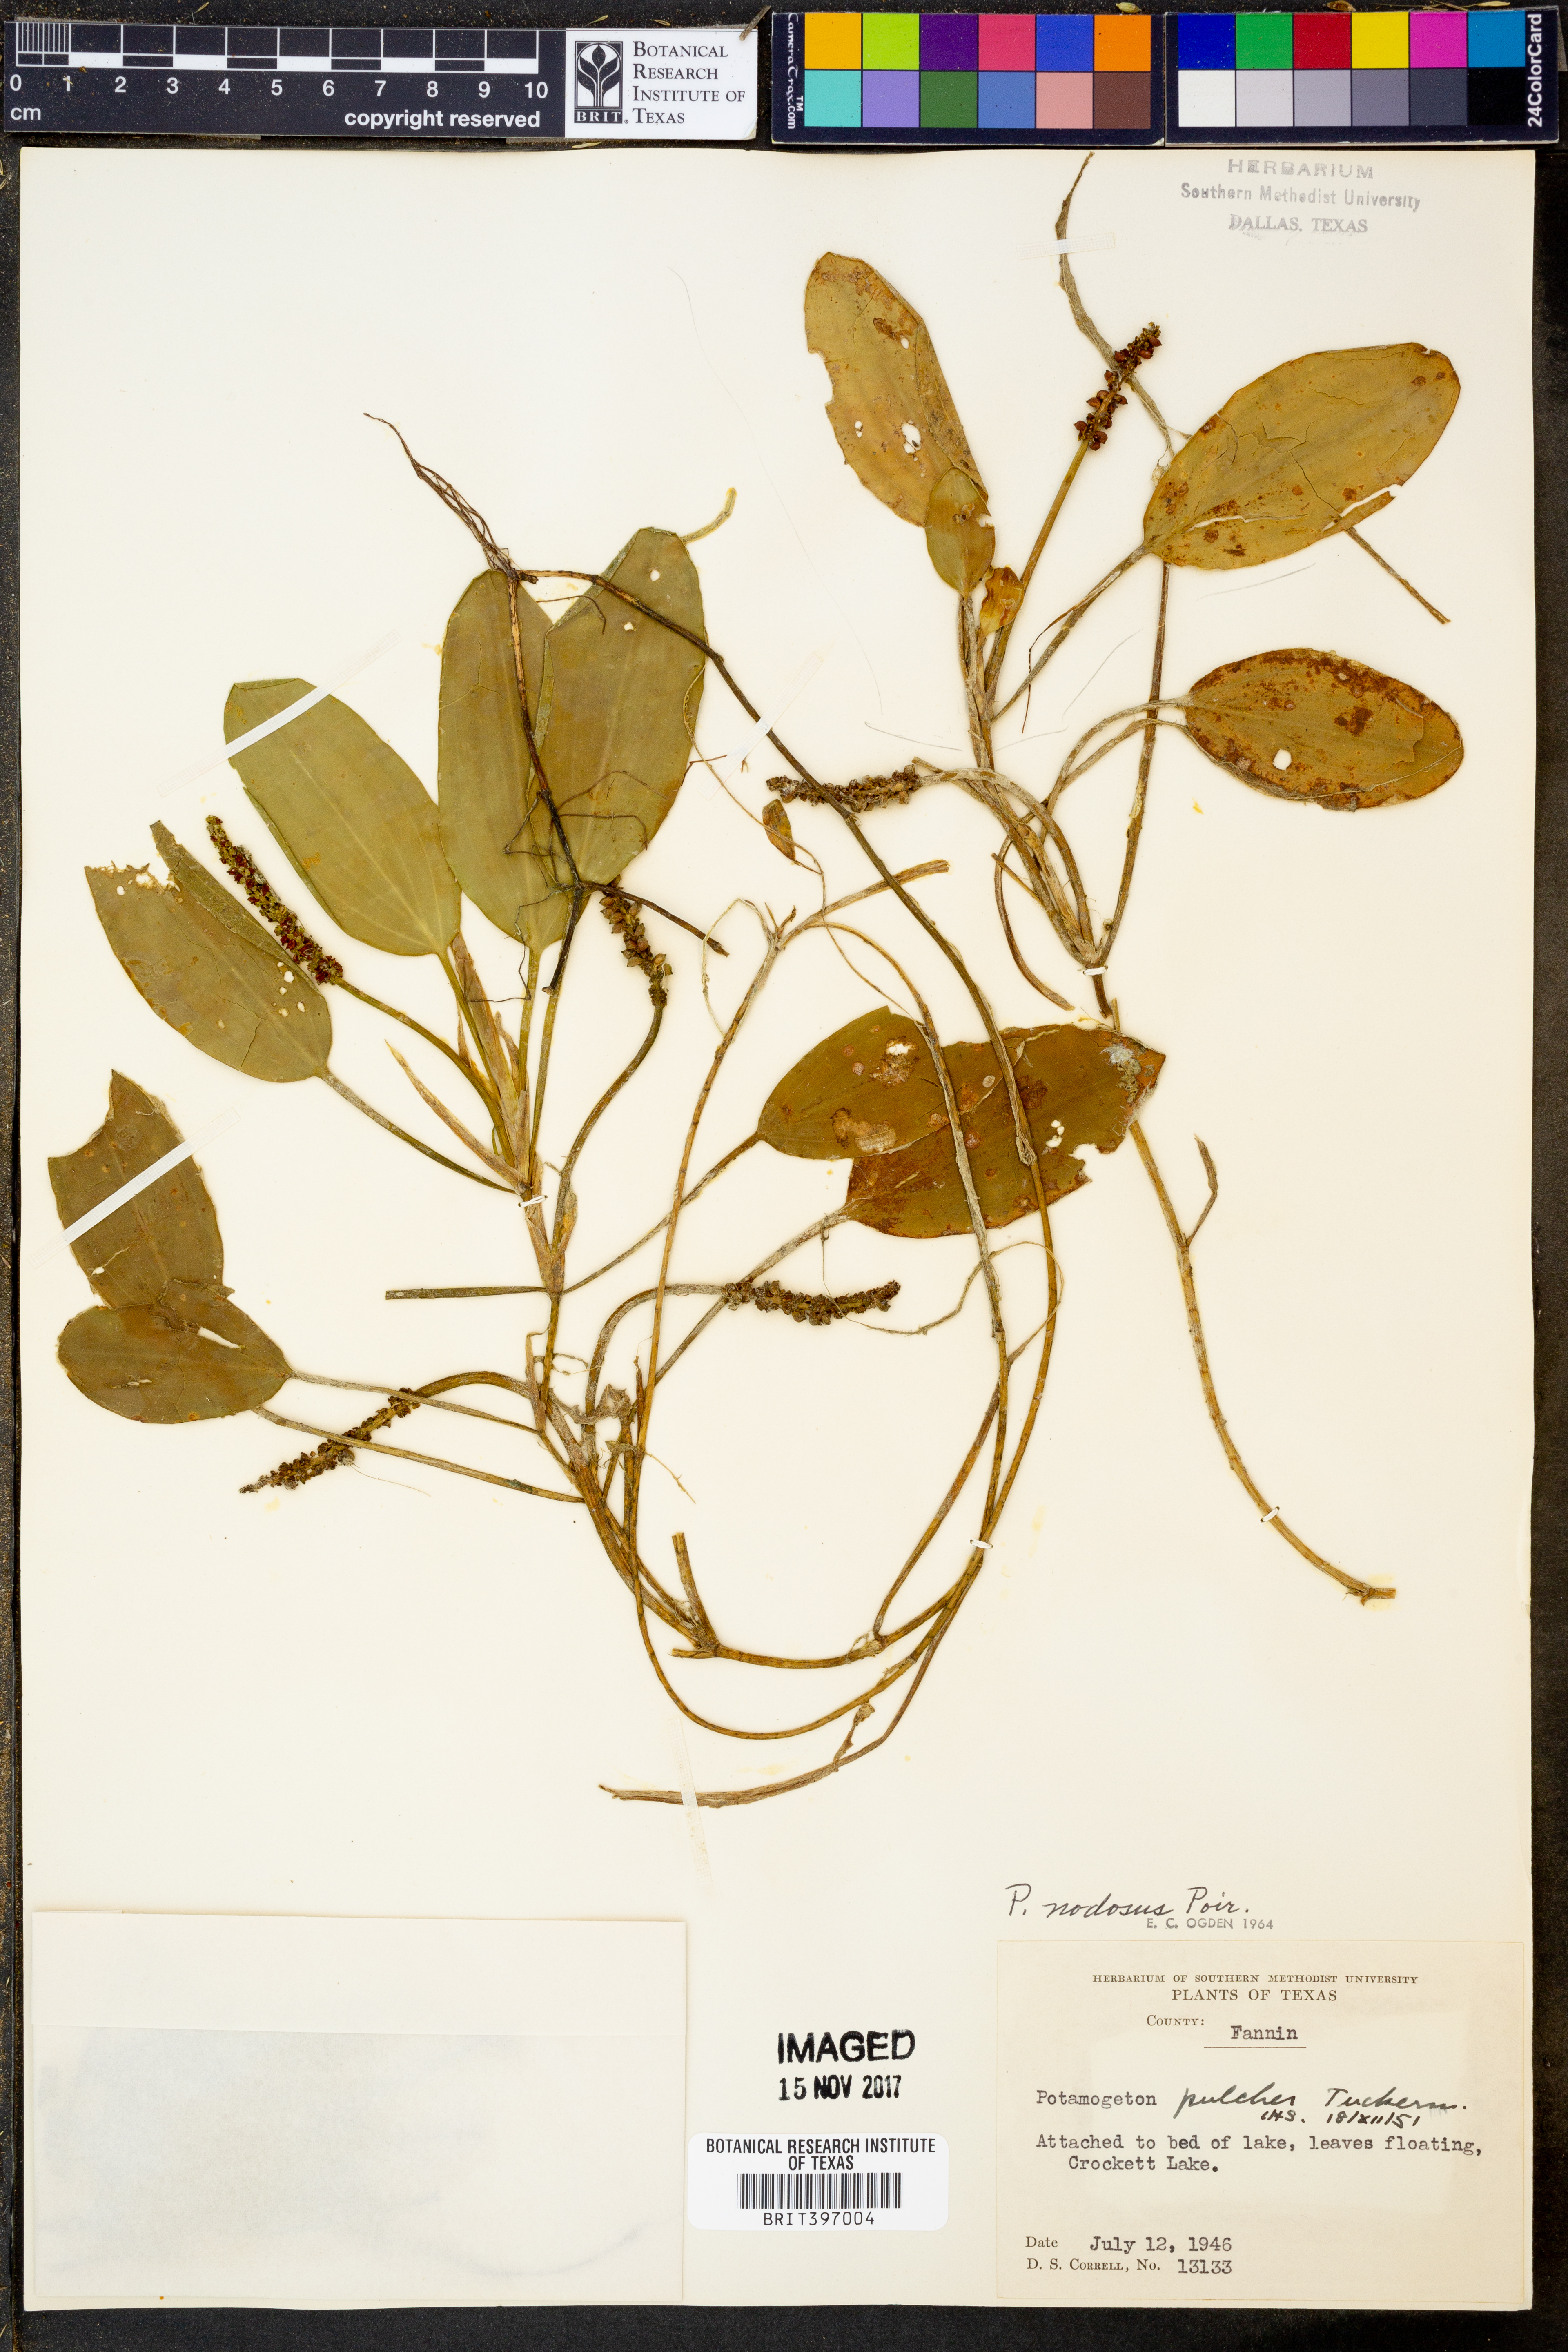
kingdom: Plantae
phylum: Tracheophyta
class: Liliopsida
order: Alismatales
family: Potamogetonaceae
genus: Potamogeton
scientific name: Potamogeton nodosus
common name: Loddon pondweed
